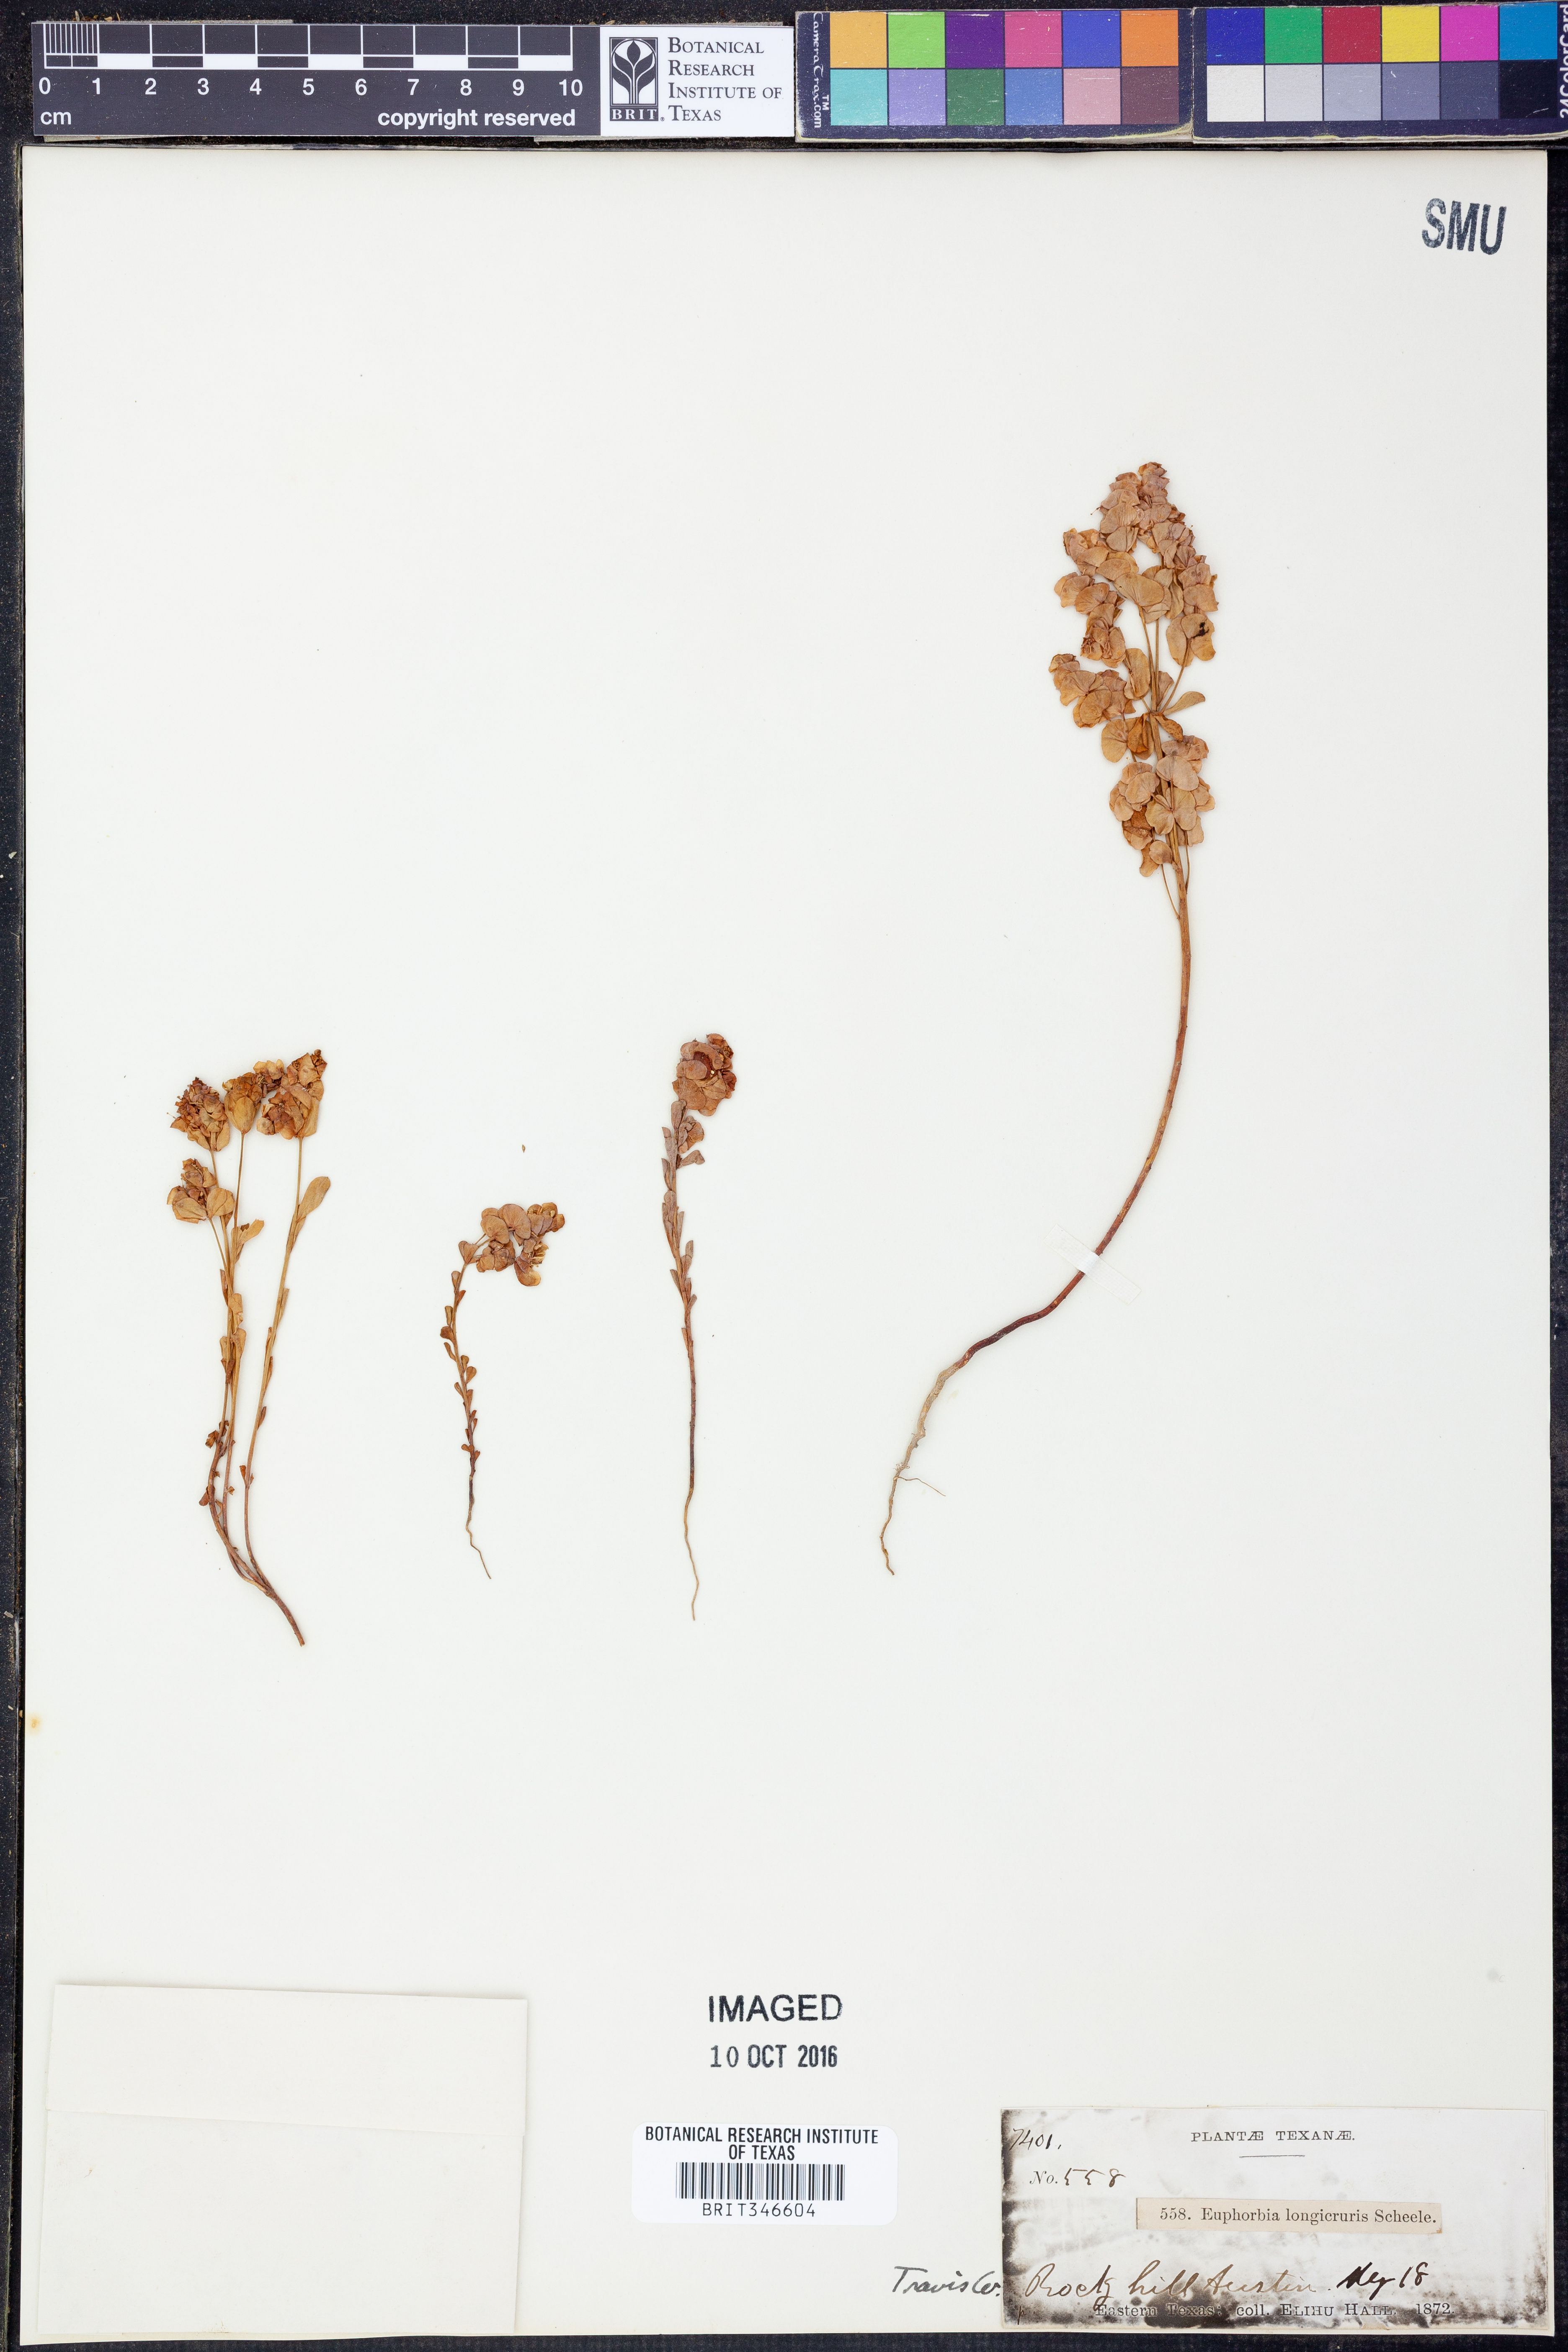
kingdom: Plantae
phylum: Tracheophyta
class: Magnoliopsida
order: Malpighiales
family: Euphorbiaceae
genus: Euphorbia
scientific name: Euphorbia longicruris
